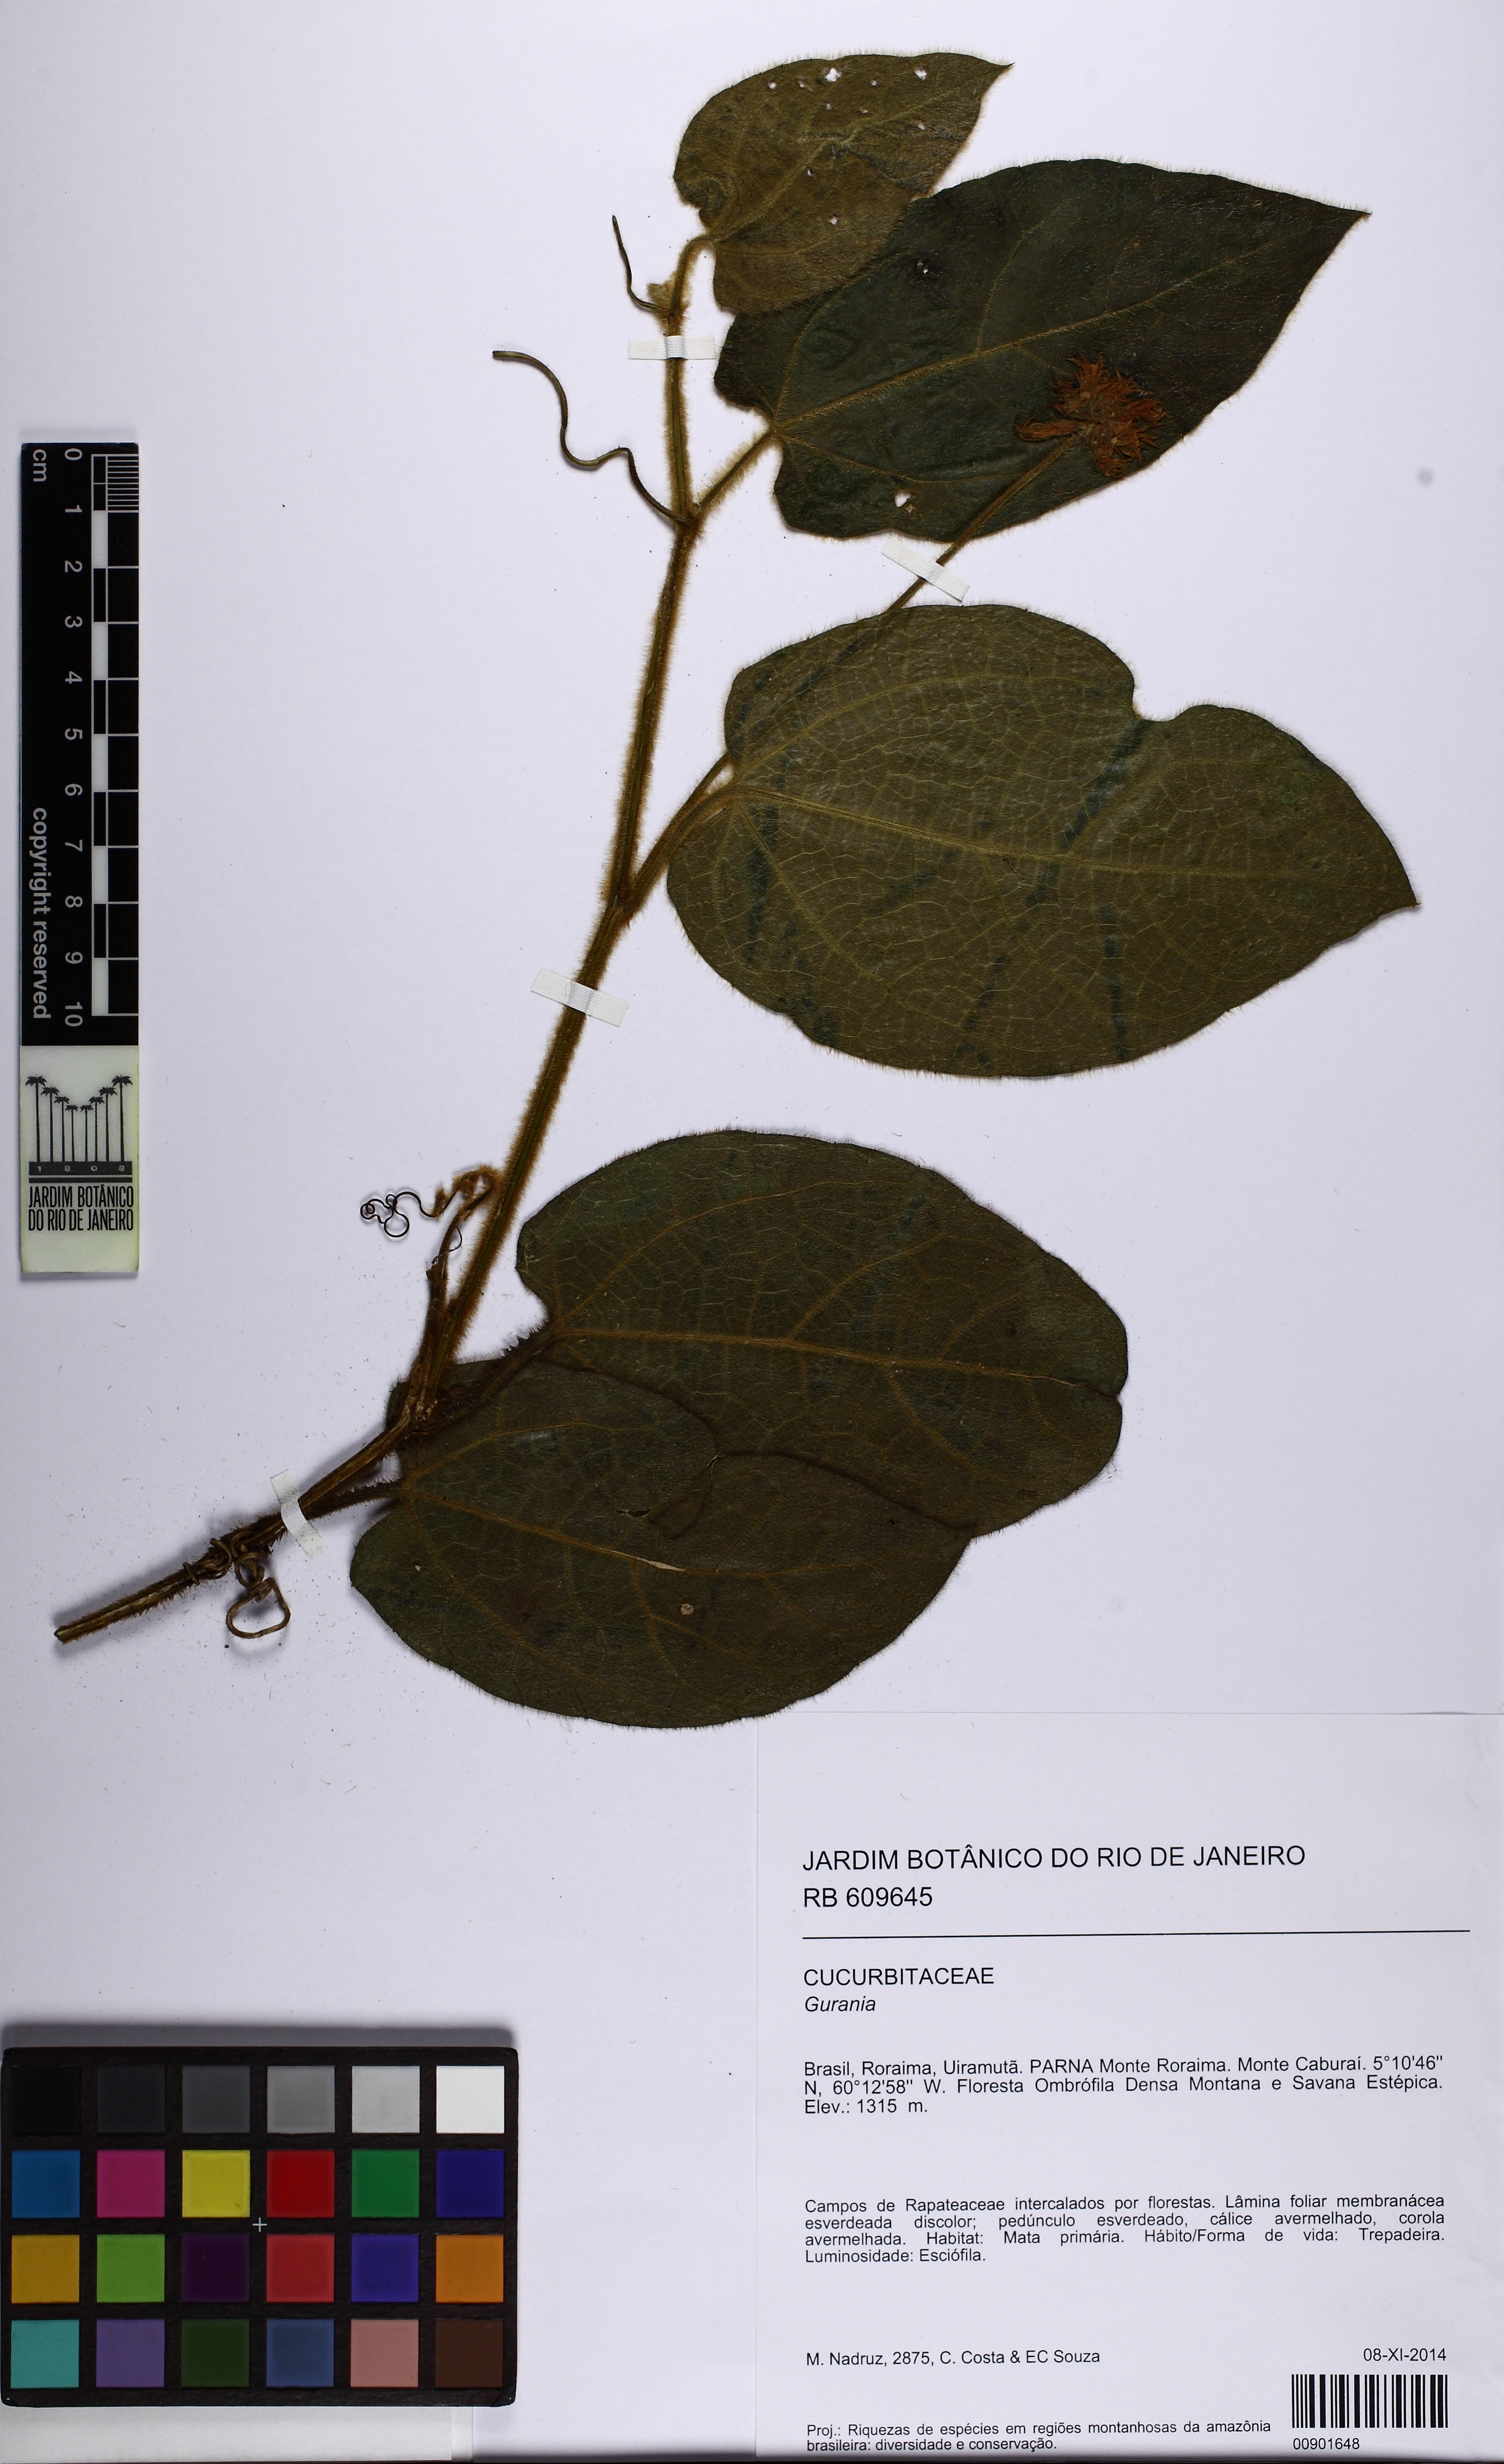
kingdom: Plantae
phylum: Tracheophyta
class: Magnoliopsida
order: Cucurbitales
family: Cucurbitaceae
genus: Gurania
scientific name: Gurania
